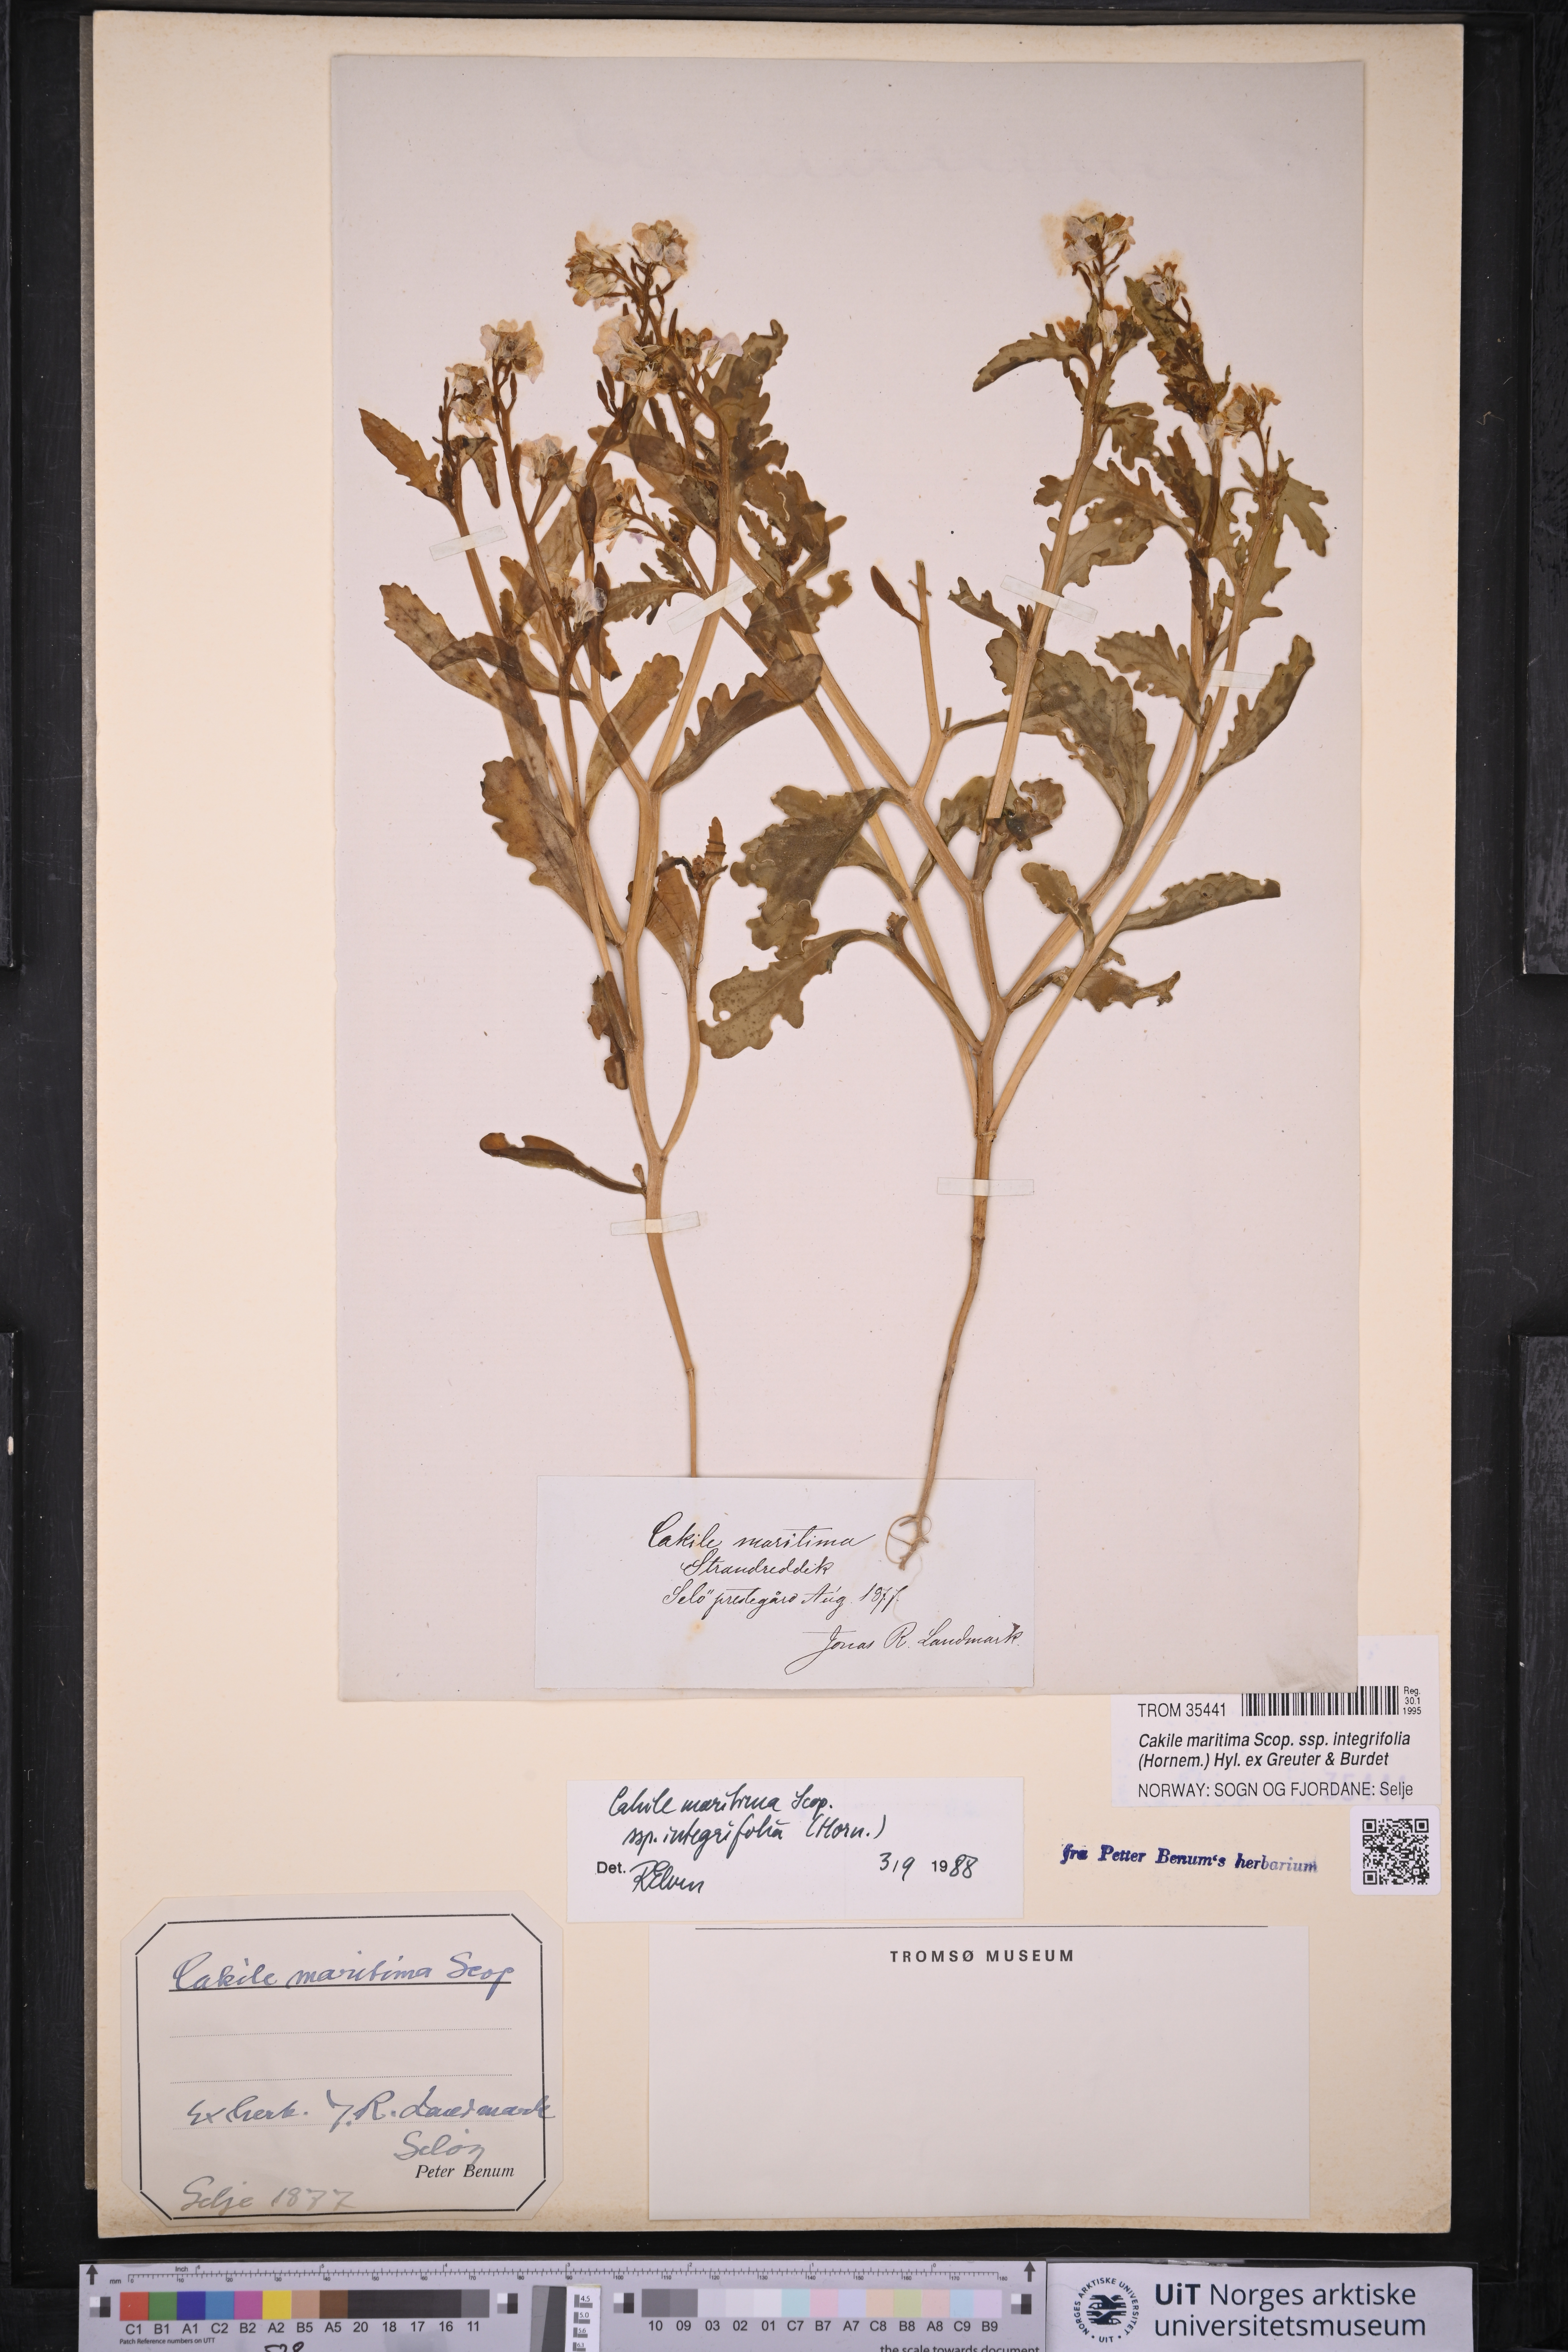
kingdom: Plantae
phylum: Tracheophyta
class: Magnoliopsida
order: Brassicales
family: Brassicaceae
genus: Cakile
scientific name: Cakile maritima
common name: Sea rocket
